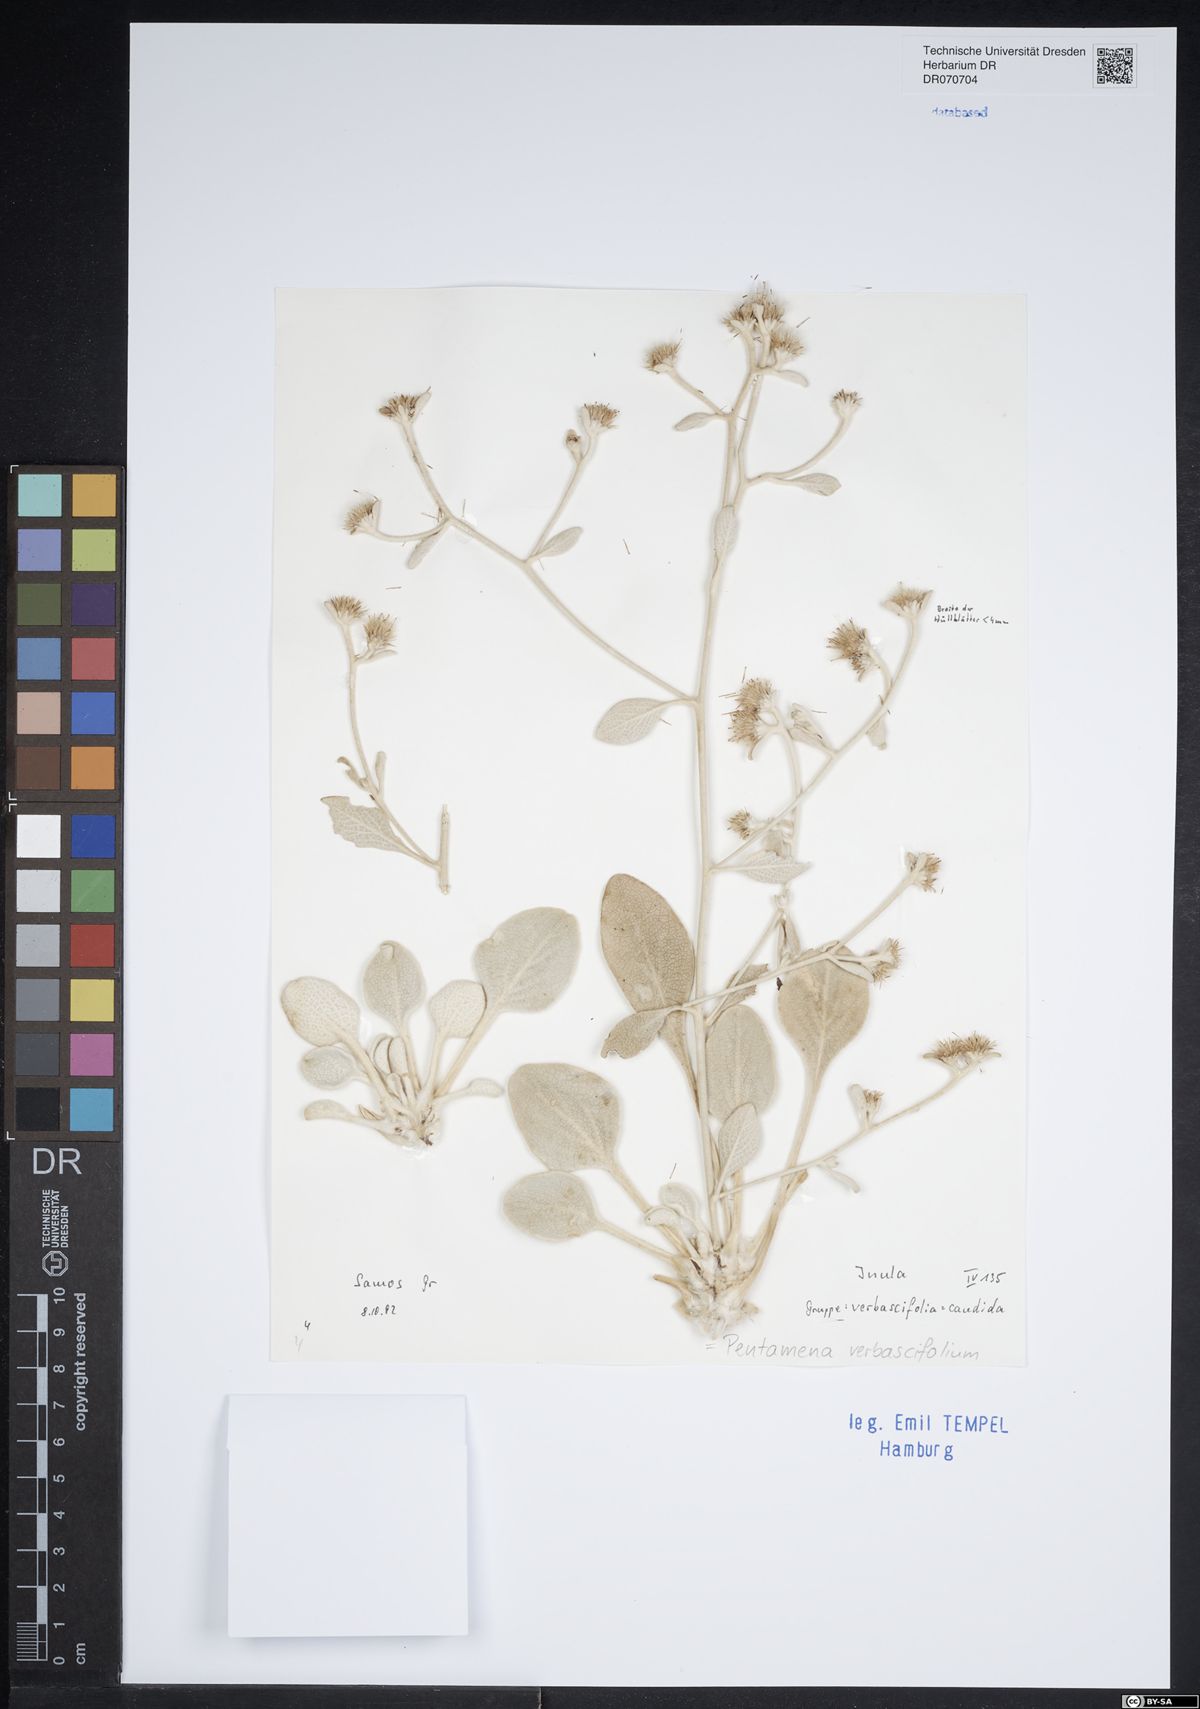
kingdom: Plantae
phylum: Tracheophyta
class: Magnoliopsida
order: Asterales
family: Asteraceae
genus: Pentanema
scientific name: Pentanema verbascifolium
